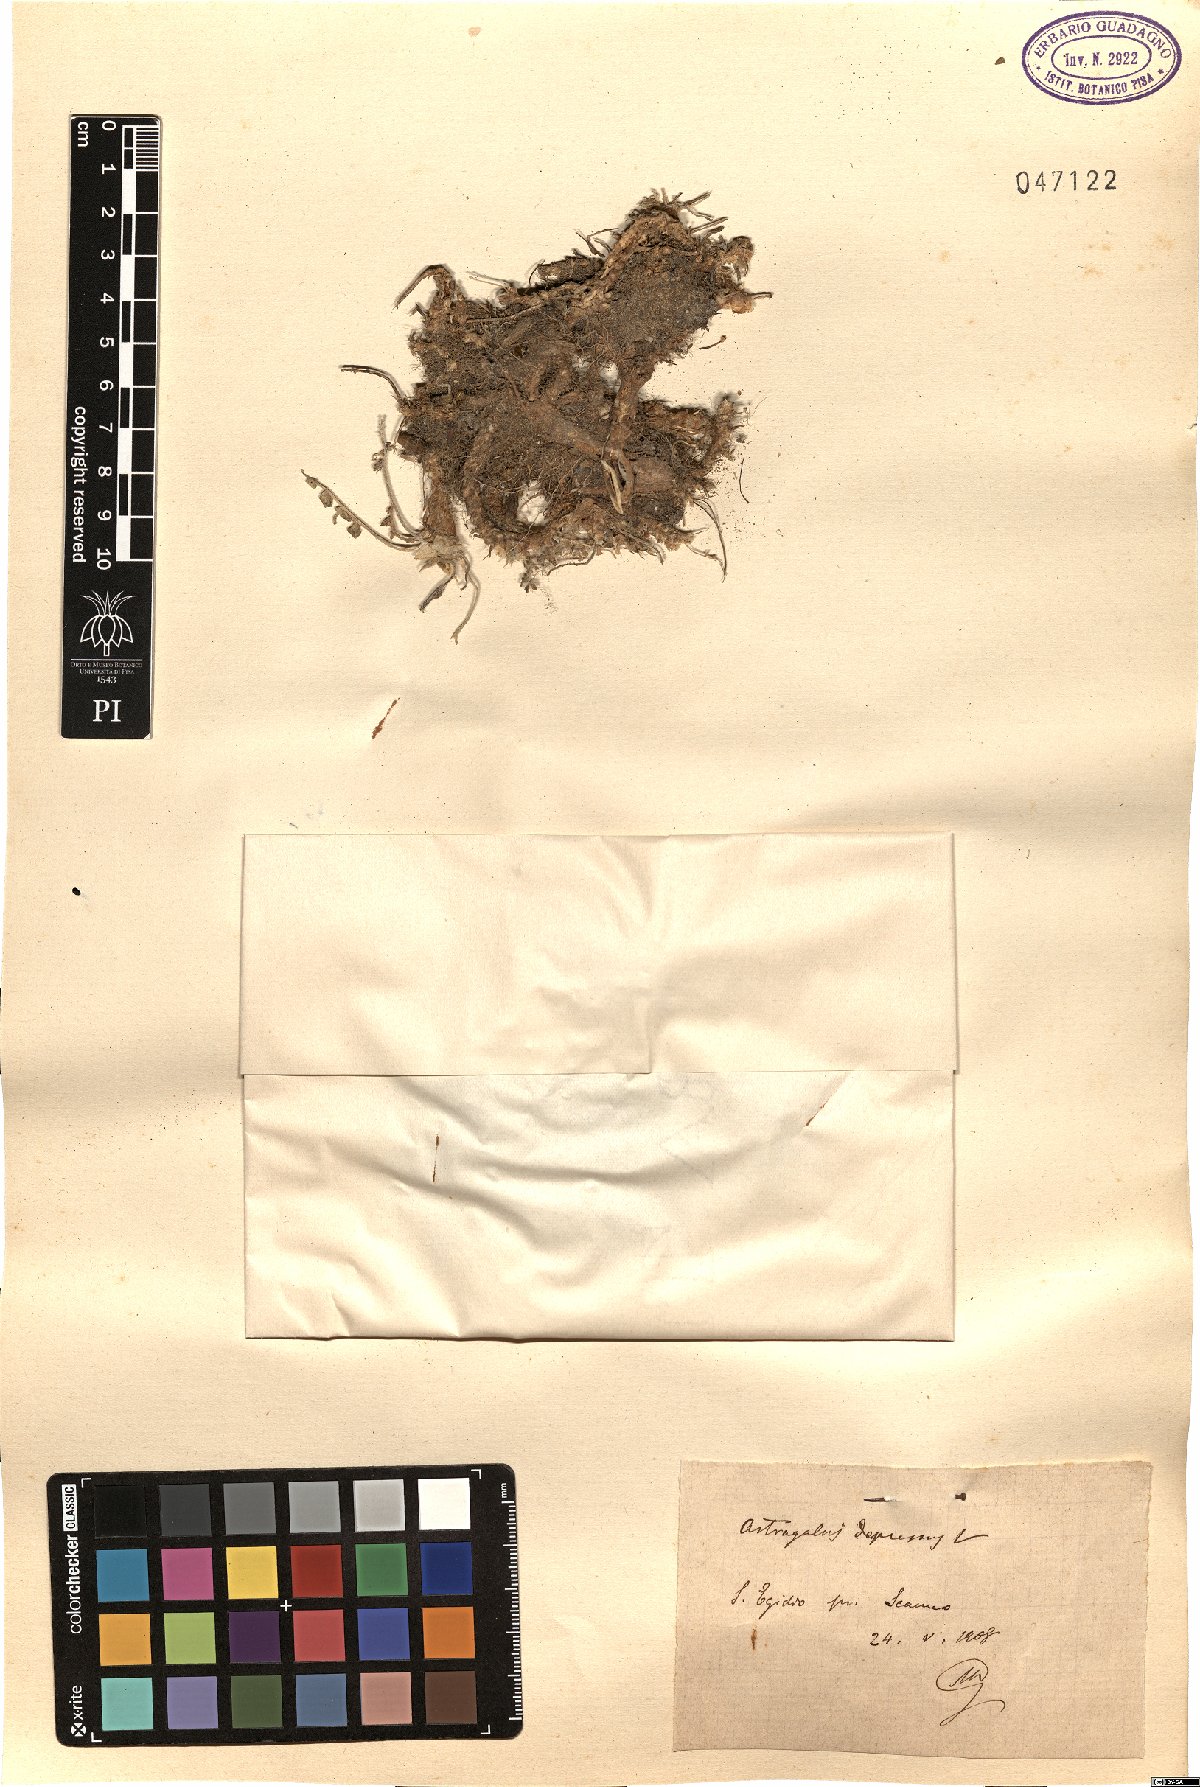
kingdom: Plantae
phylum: Tracheophyta
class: Magnoliopsida
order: Fabales
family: Fabaceae
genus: Astragalus
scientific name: Astragalus depressus
